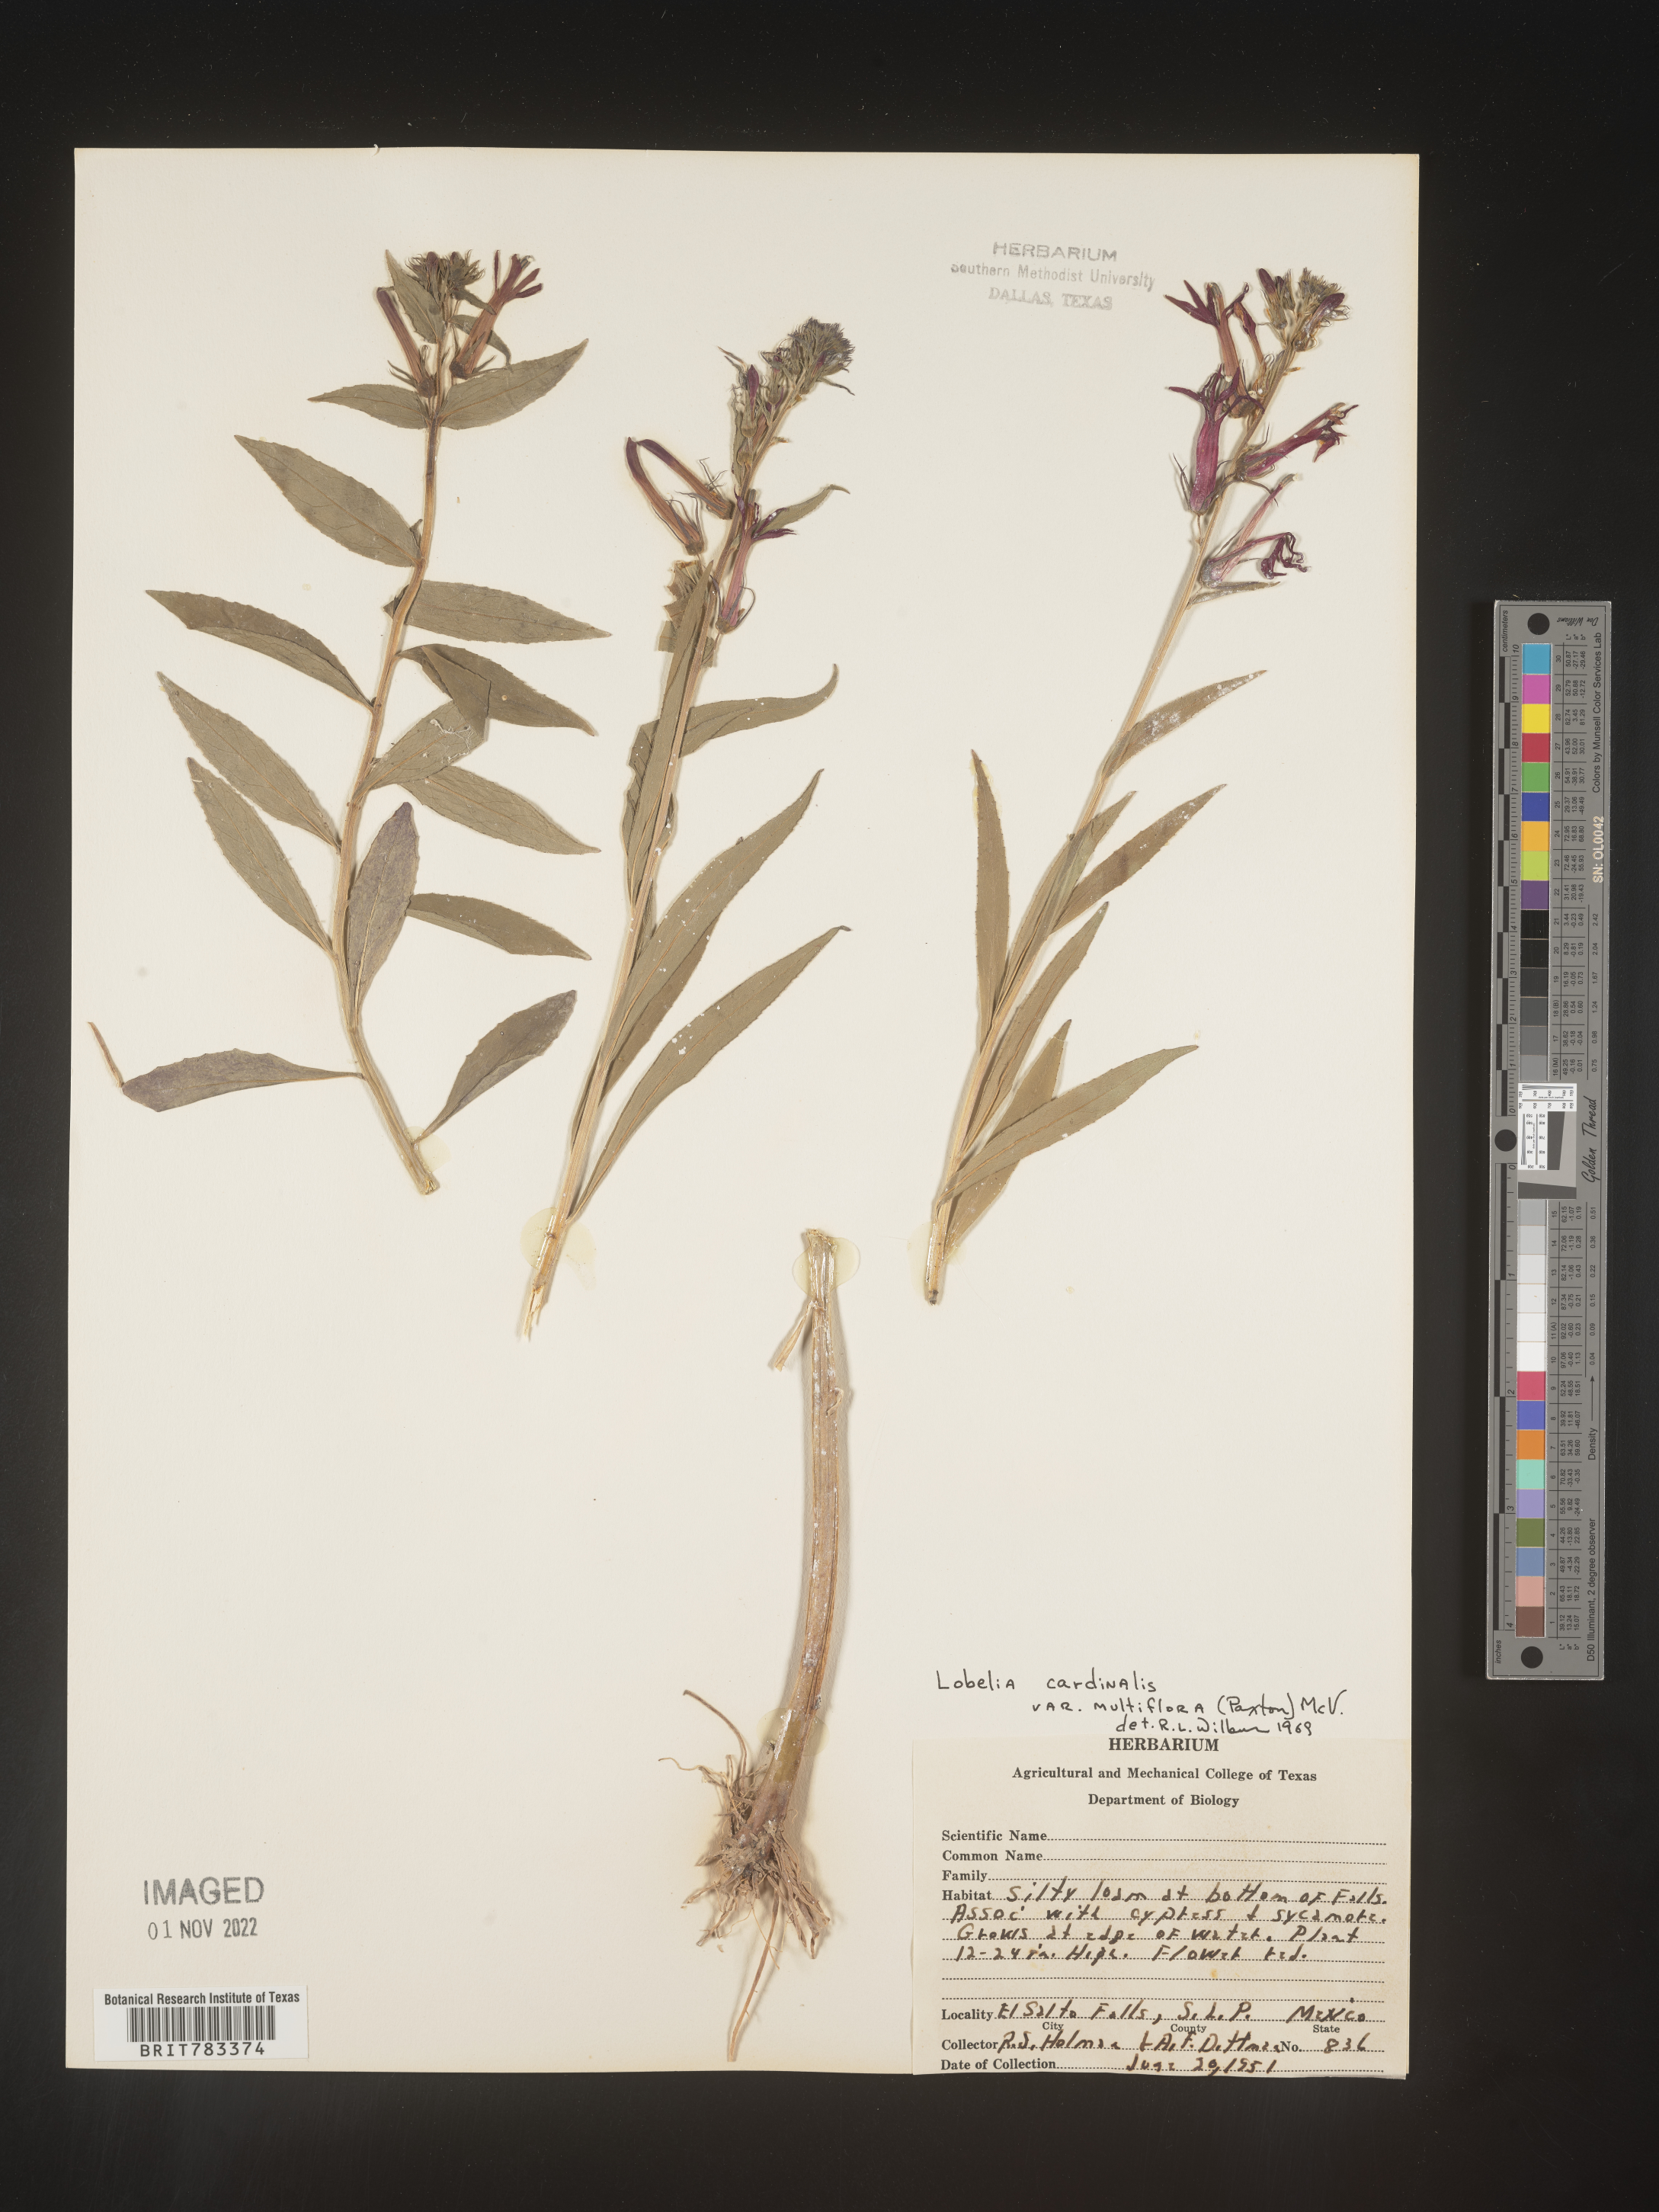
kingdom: Plantae
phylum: Tracheophyta
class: Magnoliopsida
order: Asterales
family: Campanulaceae
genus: Lobelia
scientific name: Lobelia
